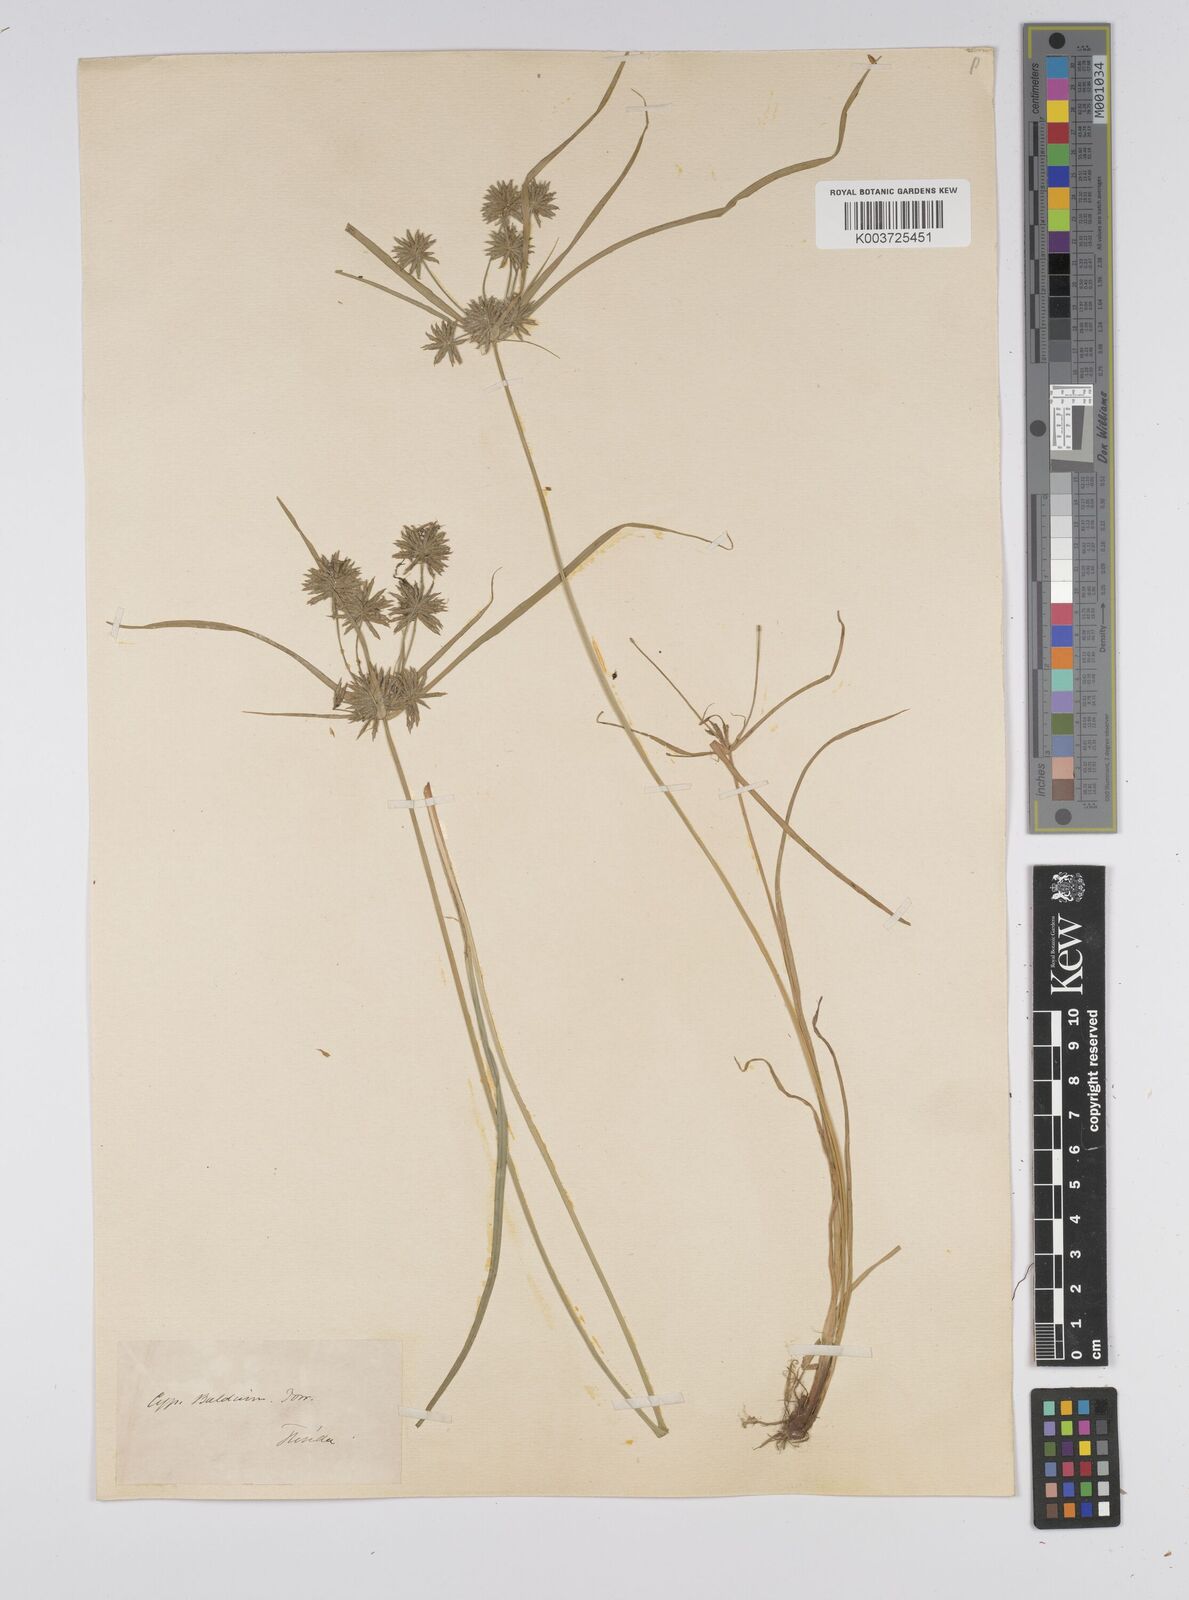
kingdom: Plantae
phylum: Tracheophyta
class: Liliopsida
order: Poales
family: Cyperaceae
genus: Cyperus
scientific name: Cyperus luzulae
